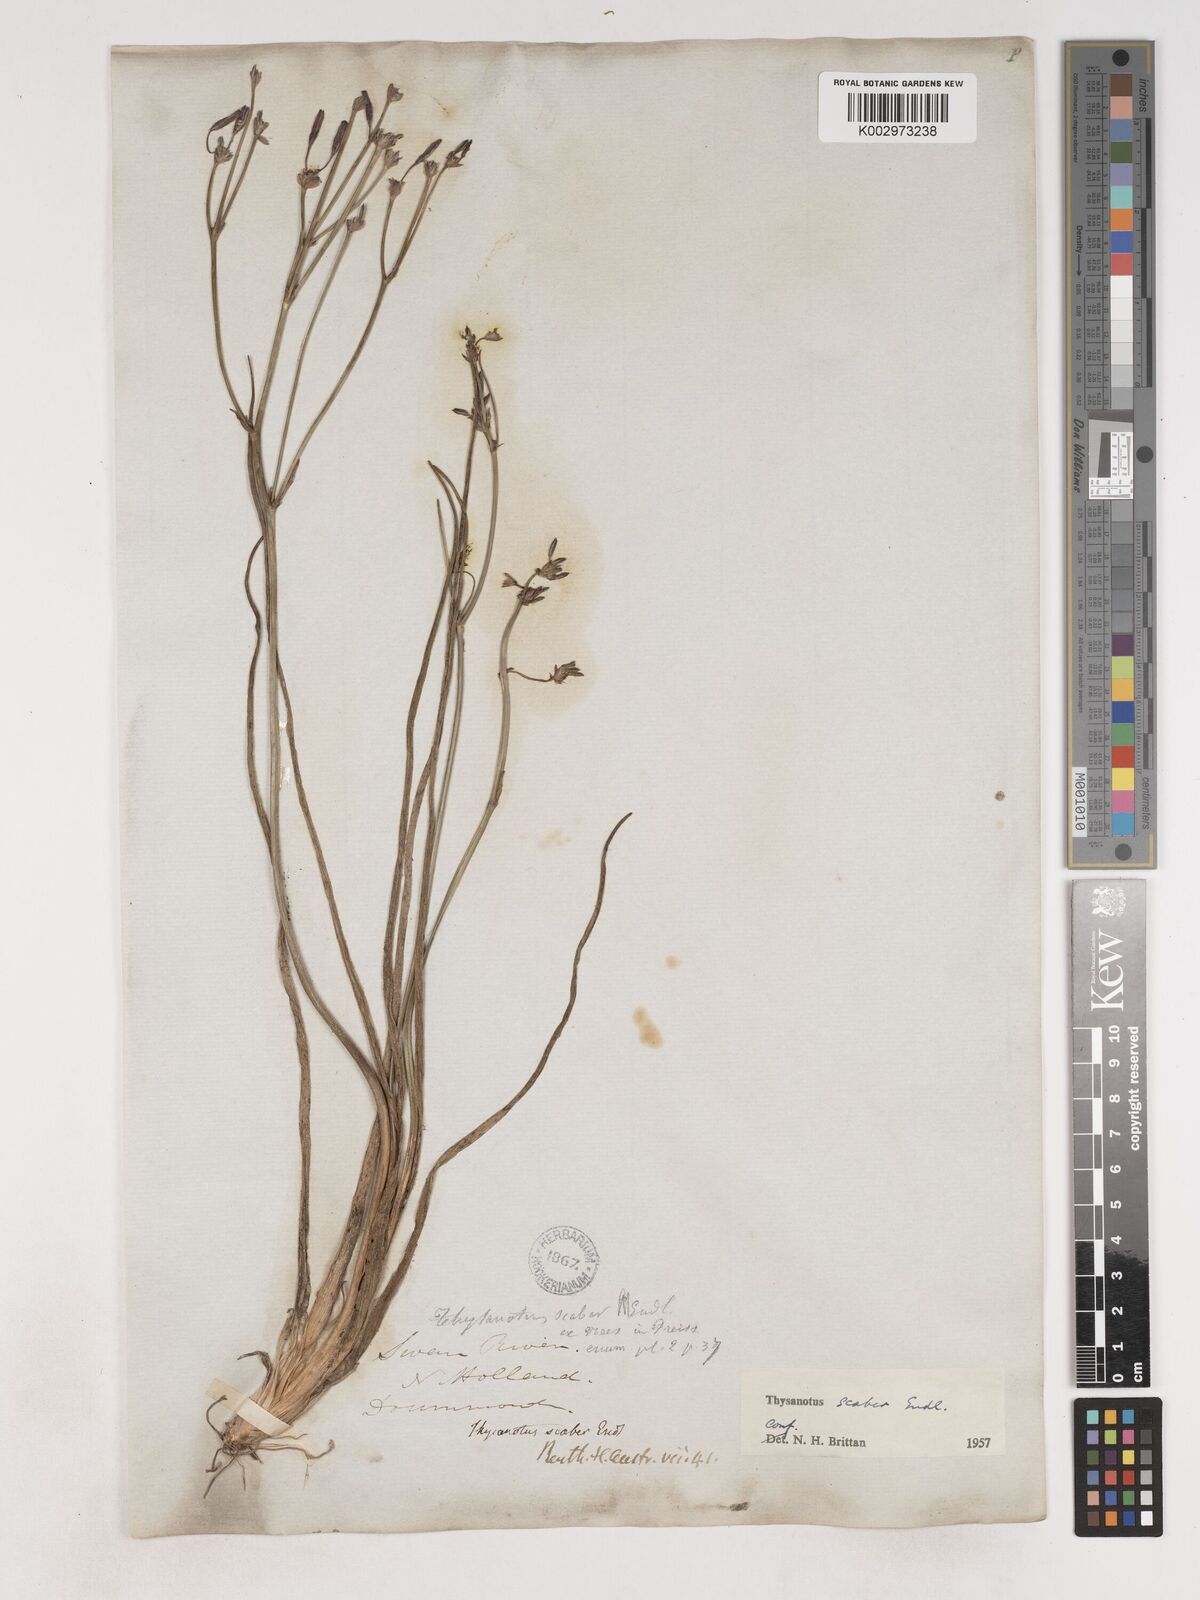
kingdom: Plantae
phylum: Tracheophyta
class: Liliopsida
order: Asparagales
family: Asparagaceae
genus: Thysanotus
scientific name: Thysanotus scaber
